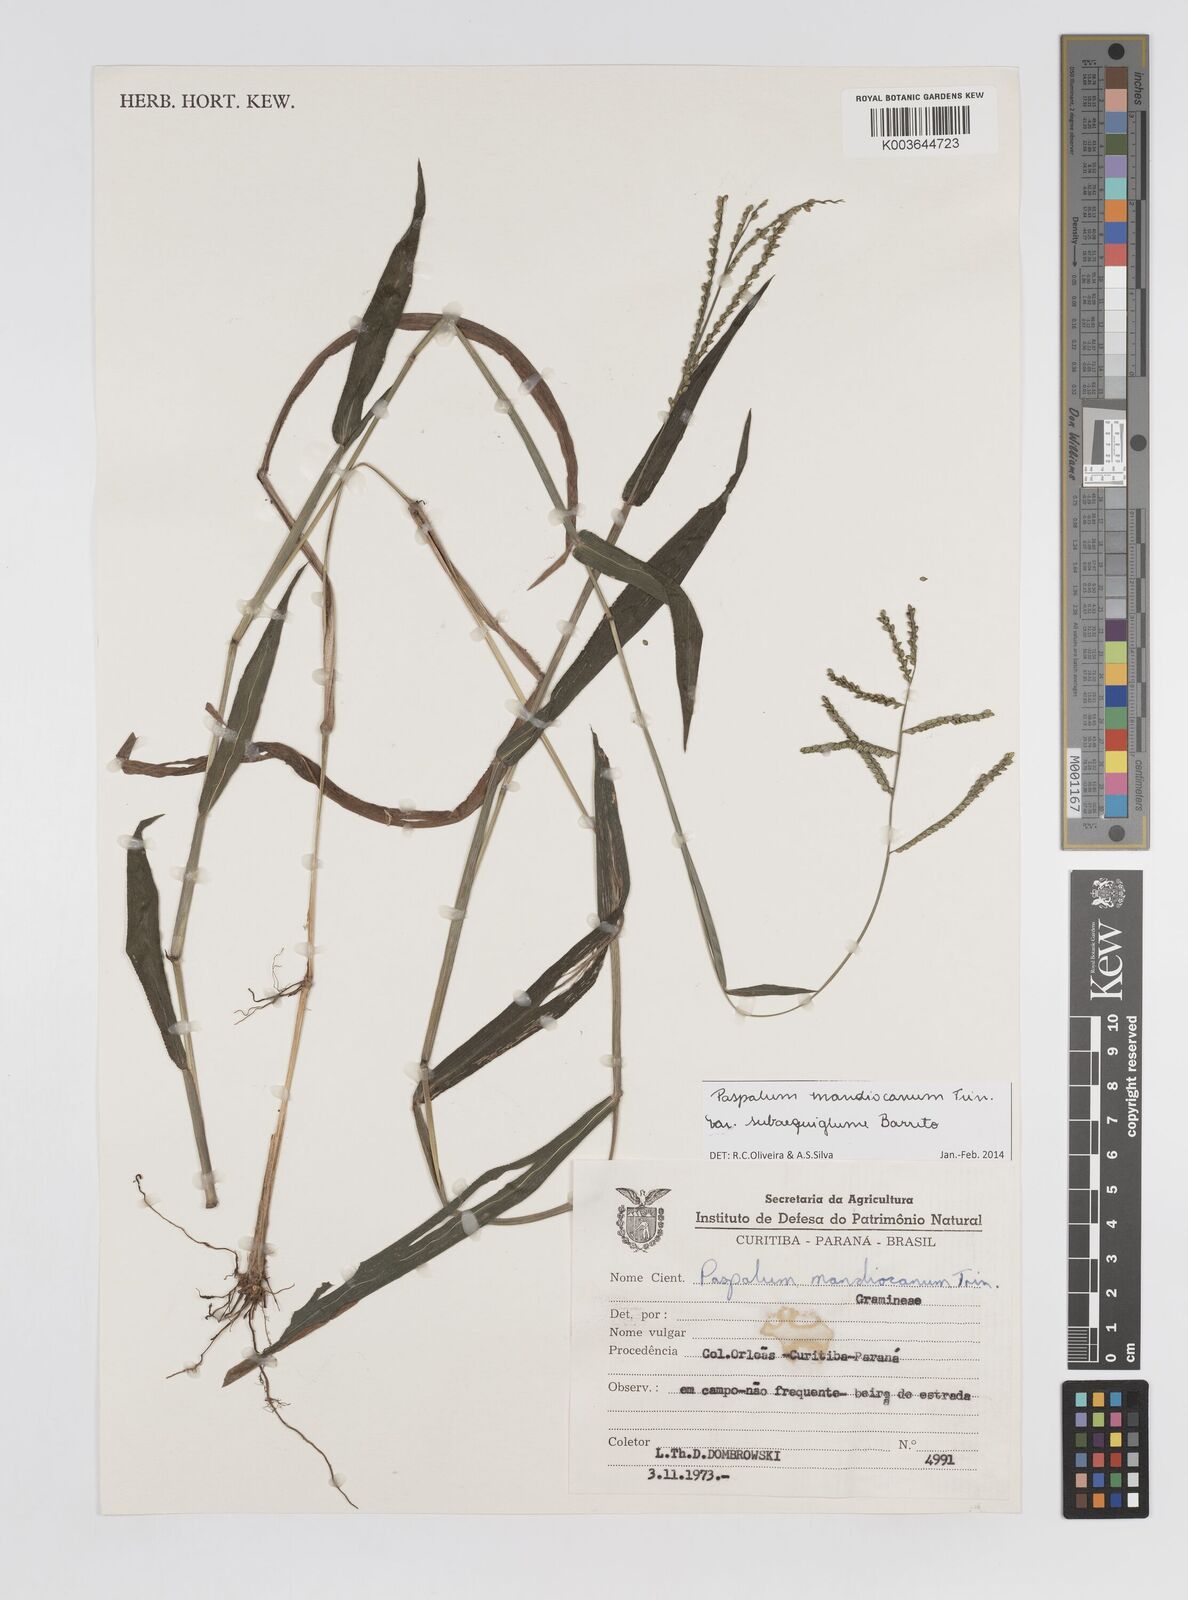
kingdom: Plantae
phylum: Tracheophyta
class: Liliopsida
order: Poales
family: Poaceae
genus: Paspalum
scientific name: Paspalum mandiocanum
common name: Paspalum
